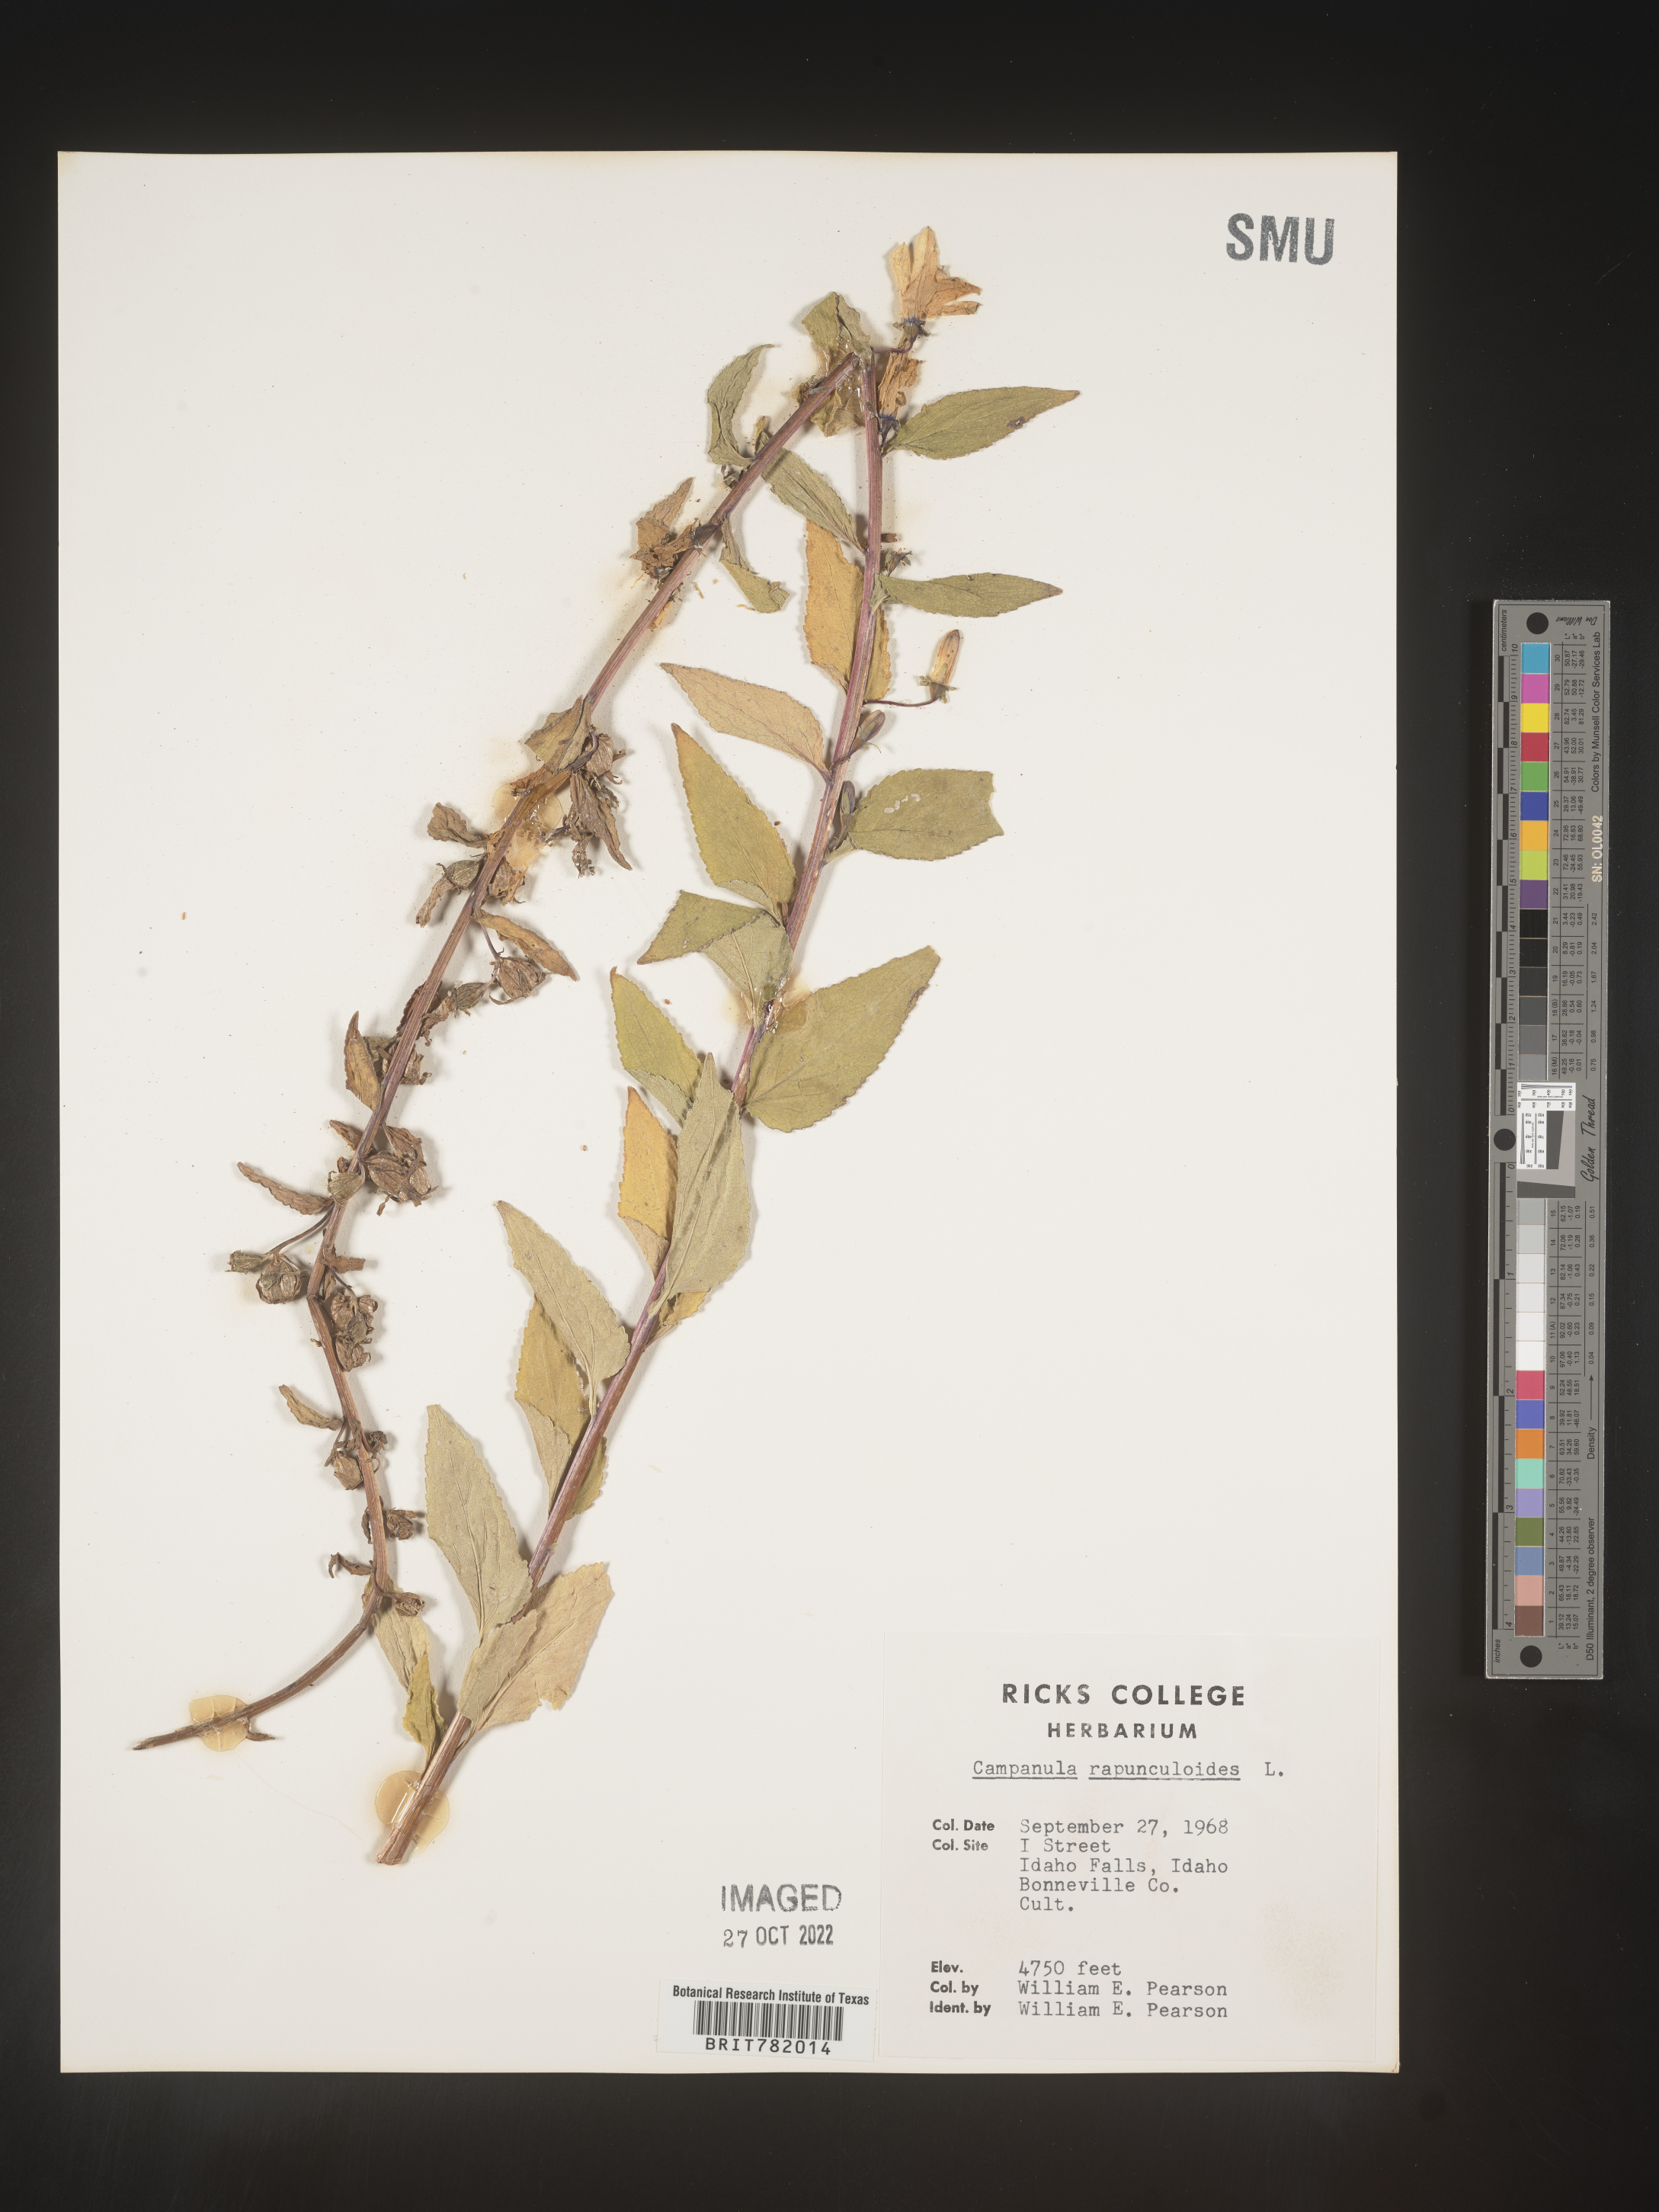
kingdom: Plantae
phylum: Tracheophyta
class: Magnoliopsida
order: Asterales
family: Campanulaceae
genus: Campanula
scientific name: Campanula
